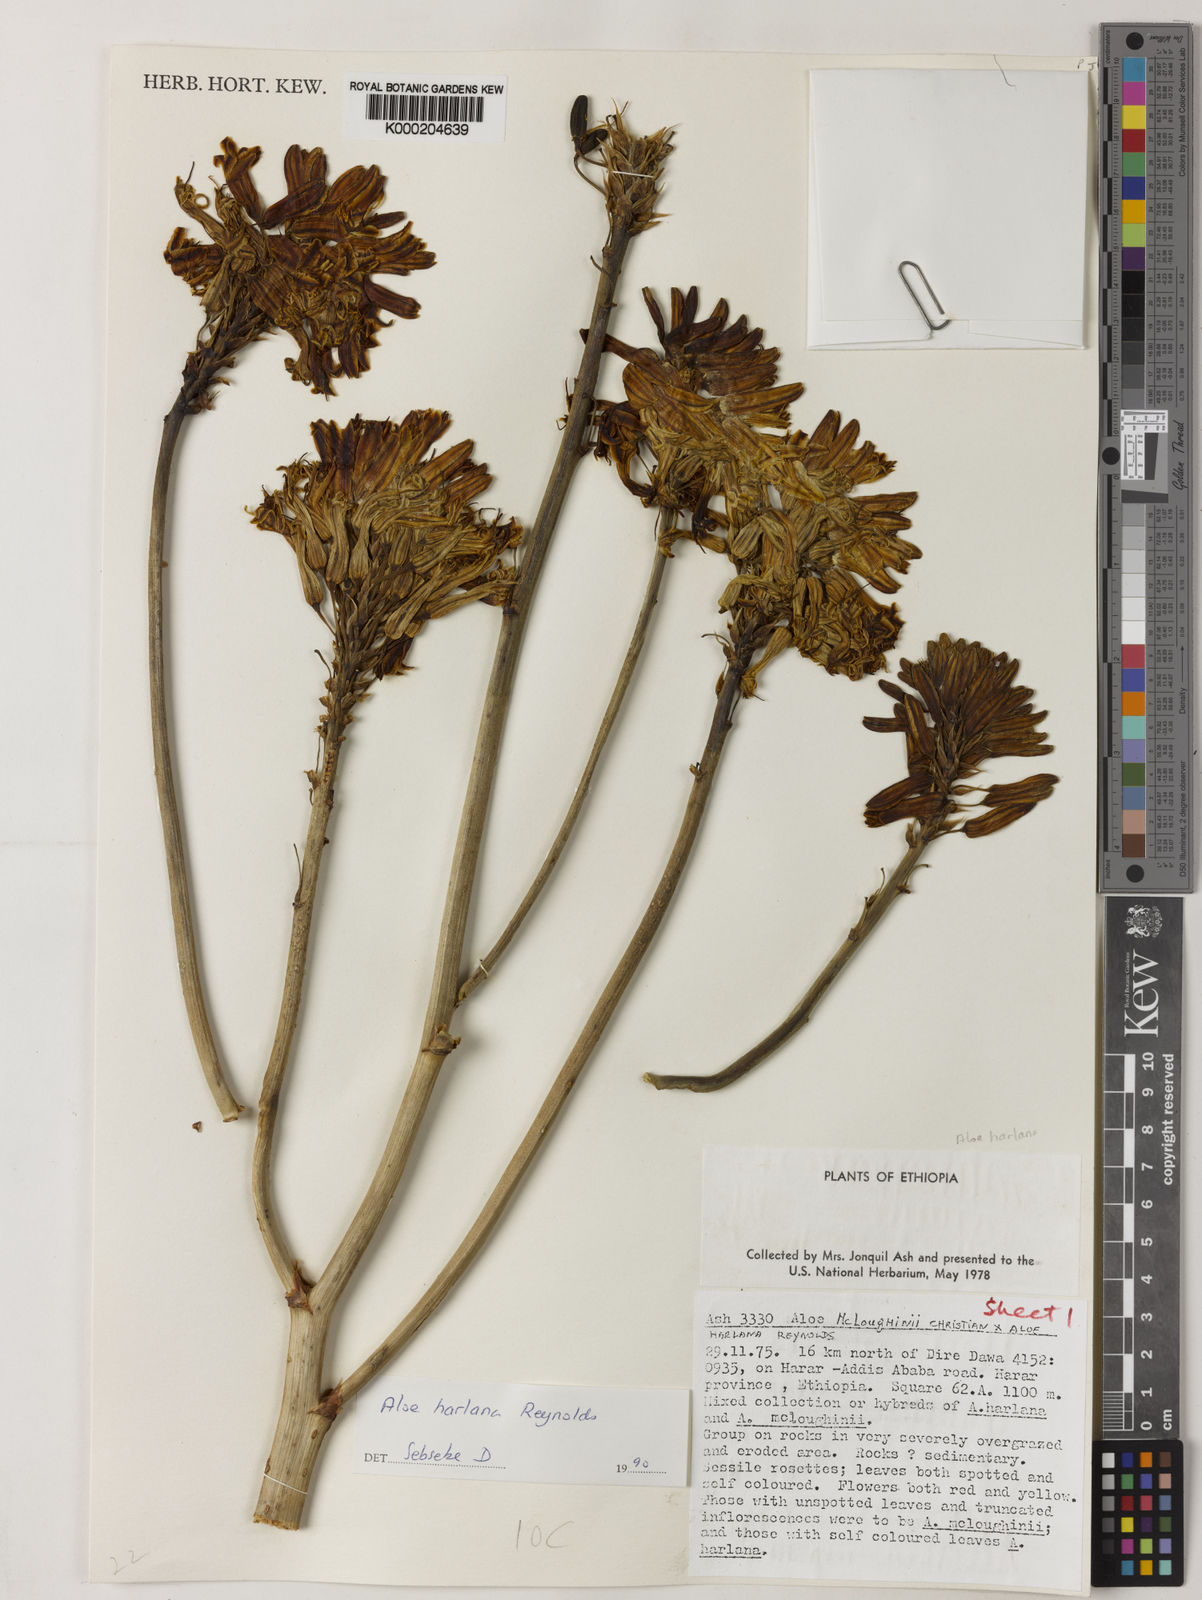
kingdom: Plantae
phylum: Tracheophyta
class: Liliopsida
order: Asparagales
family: Asphodelaceae
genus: Aloe
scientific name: Aloe harlana
